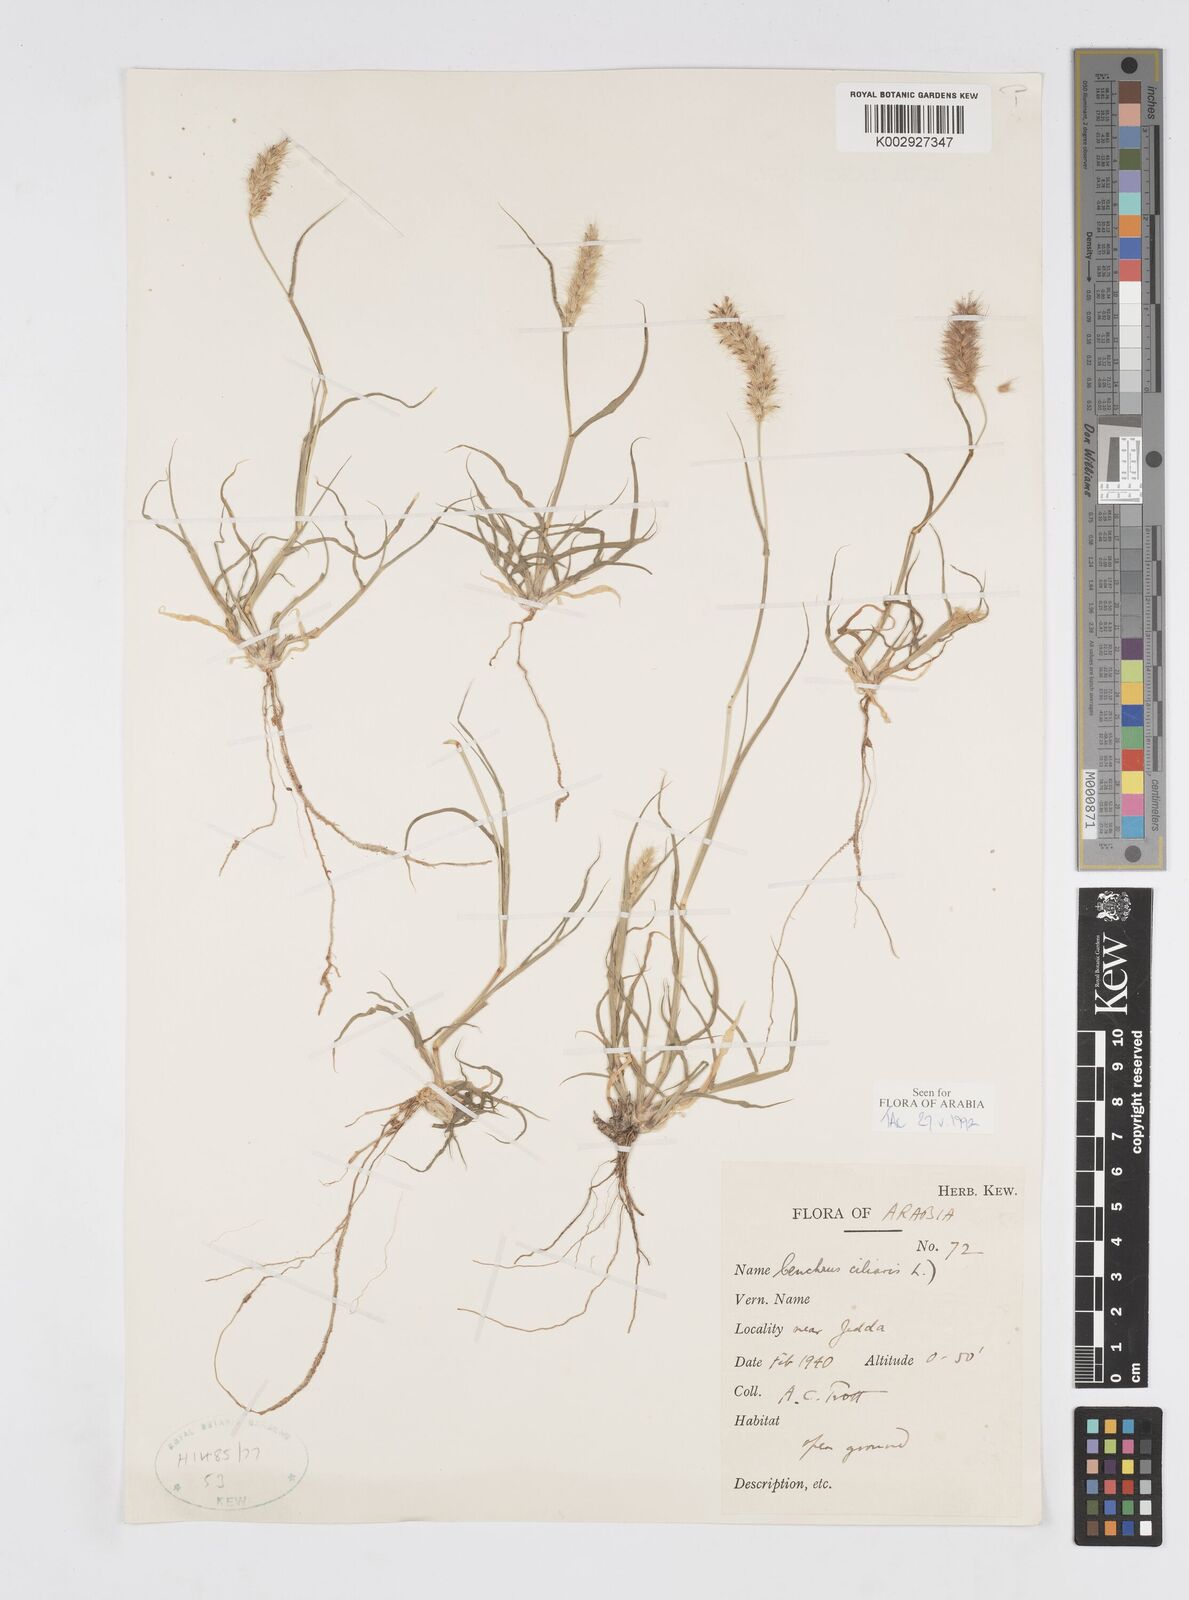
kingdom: Plantae
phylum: Tracheophyta
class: Liliopsida
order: Poales
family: Poaceae
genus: Cenchrus
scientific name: Cenchrus ciliaris
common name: Buffelgrass
